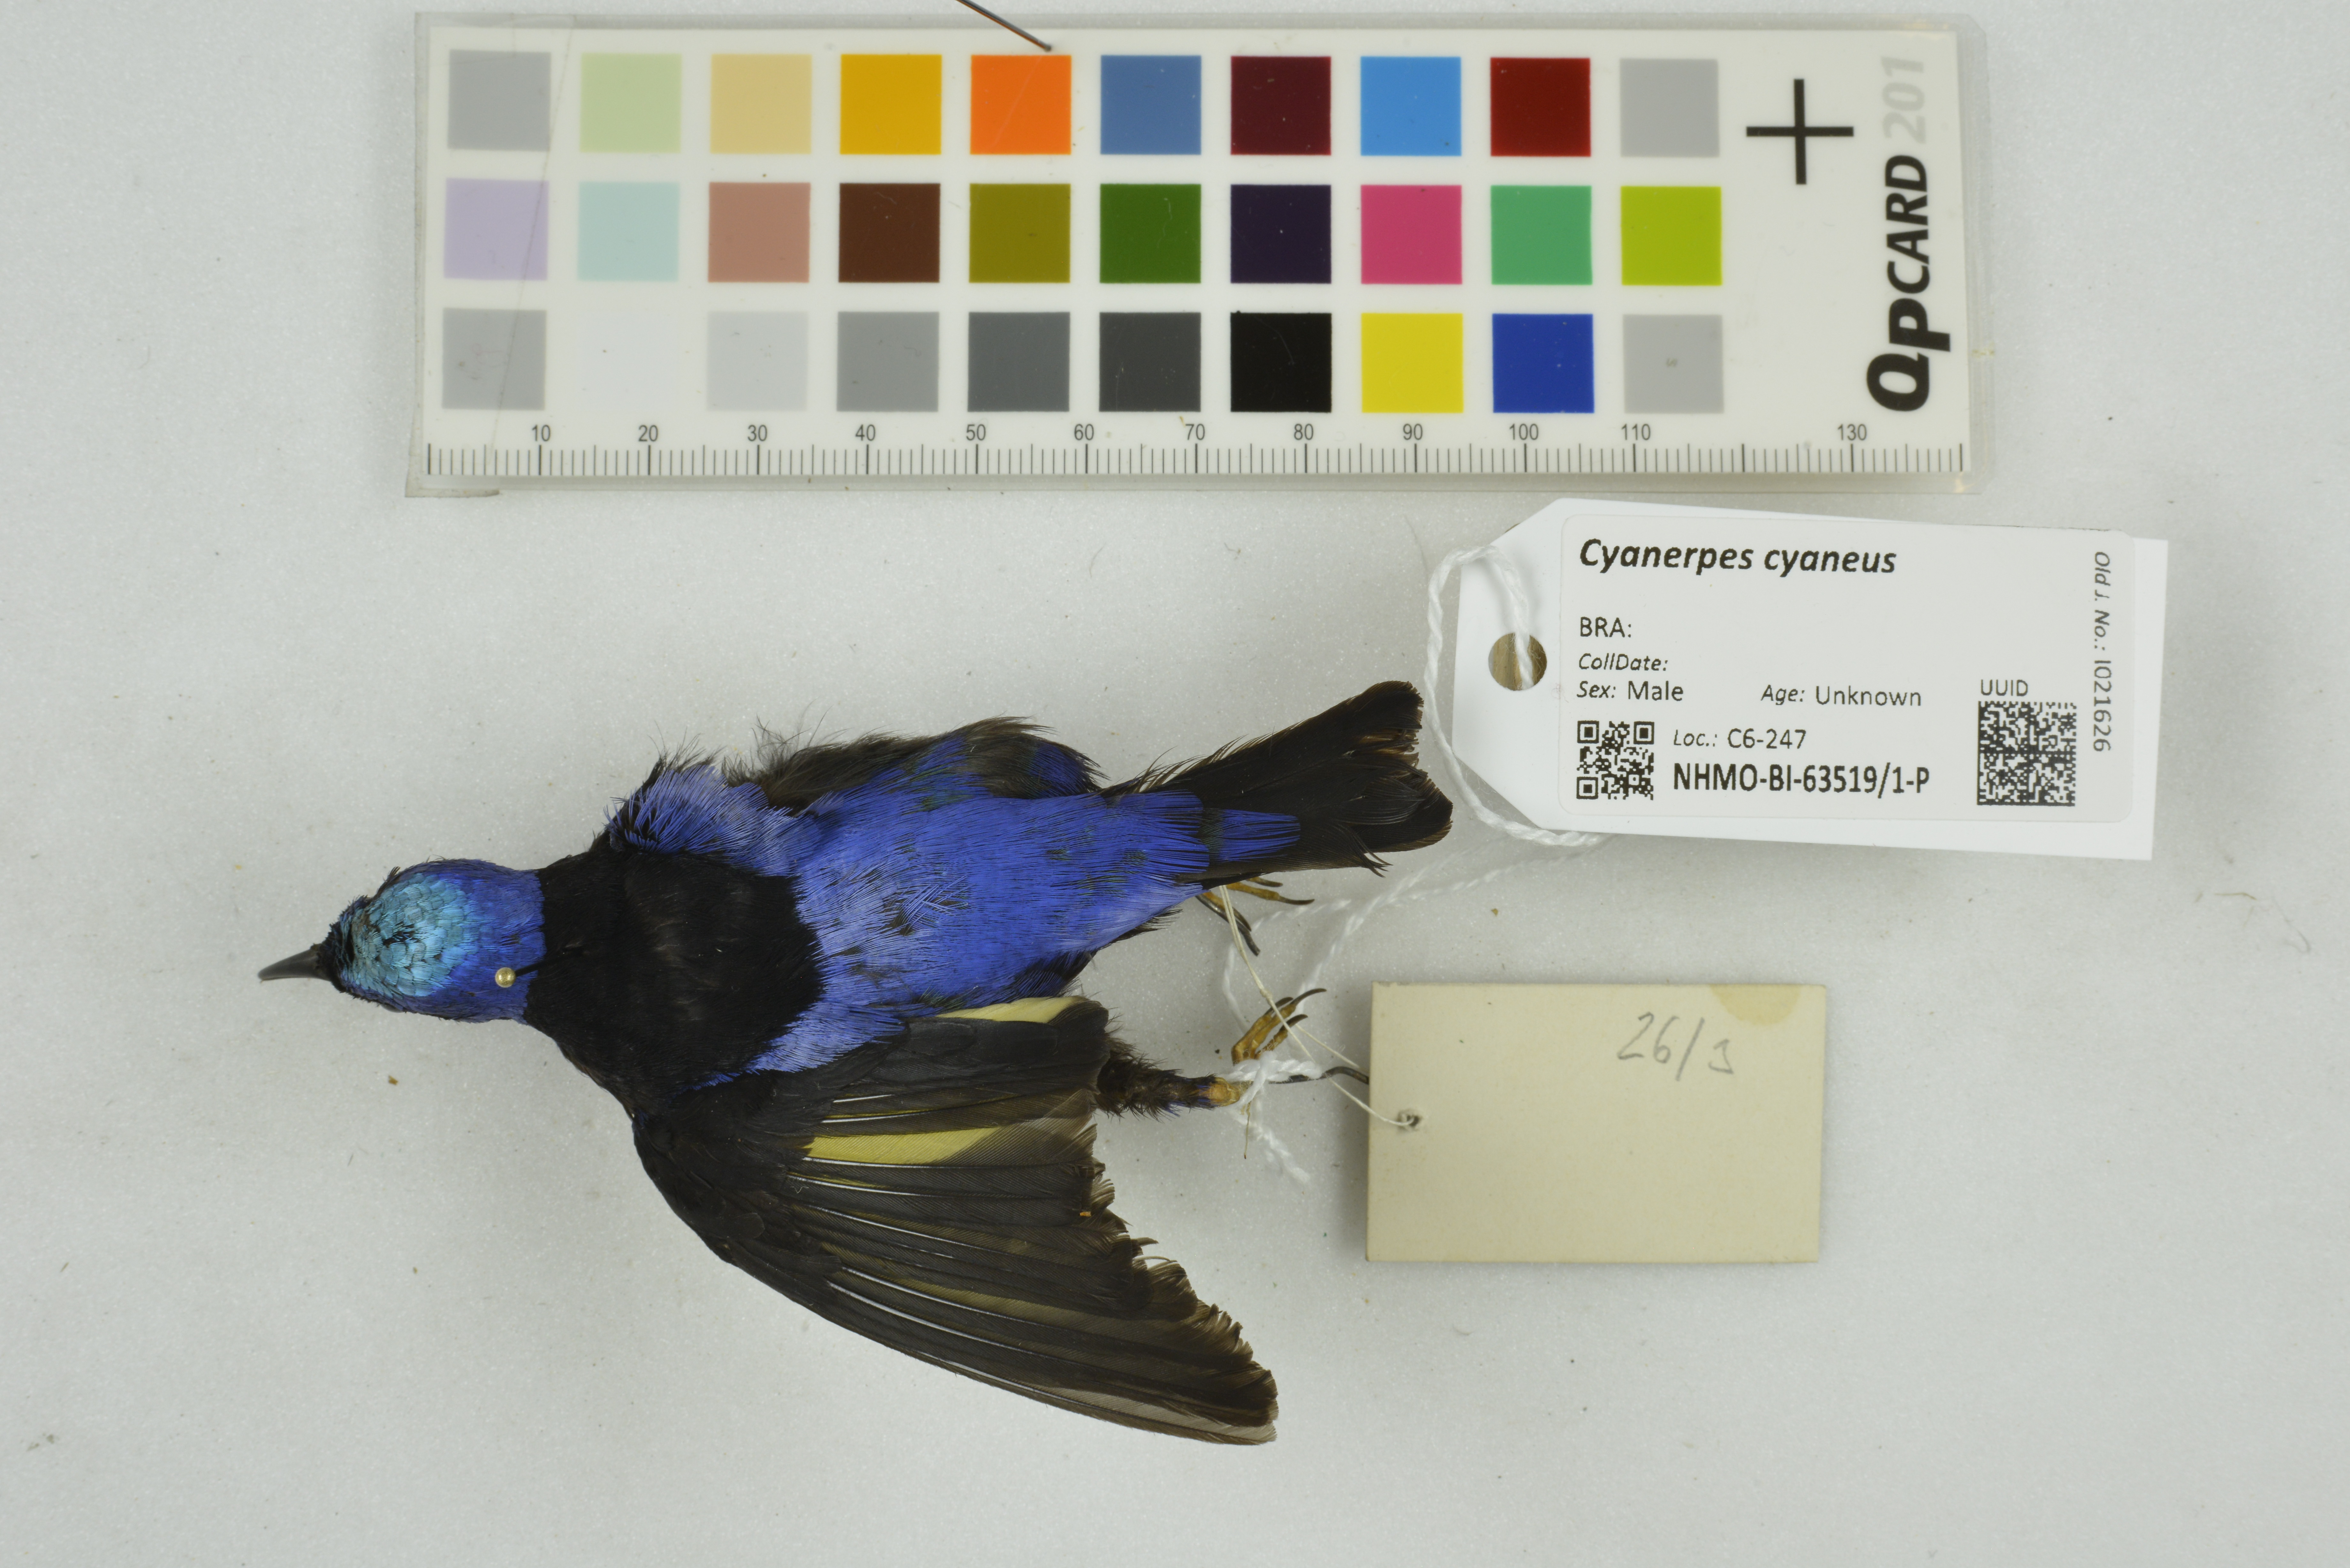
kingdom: Animalia
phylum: Chordata
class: Aves
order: Passeriformes
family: Thraupidae
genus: Cyanerpes
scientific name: Cyanerpes cyaneus
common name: Red-legged honeycreeper
